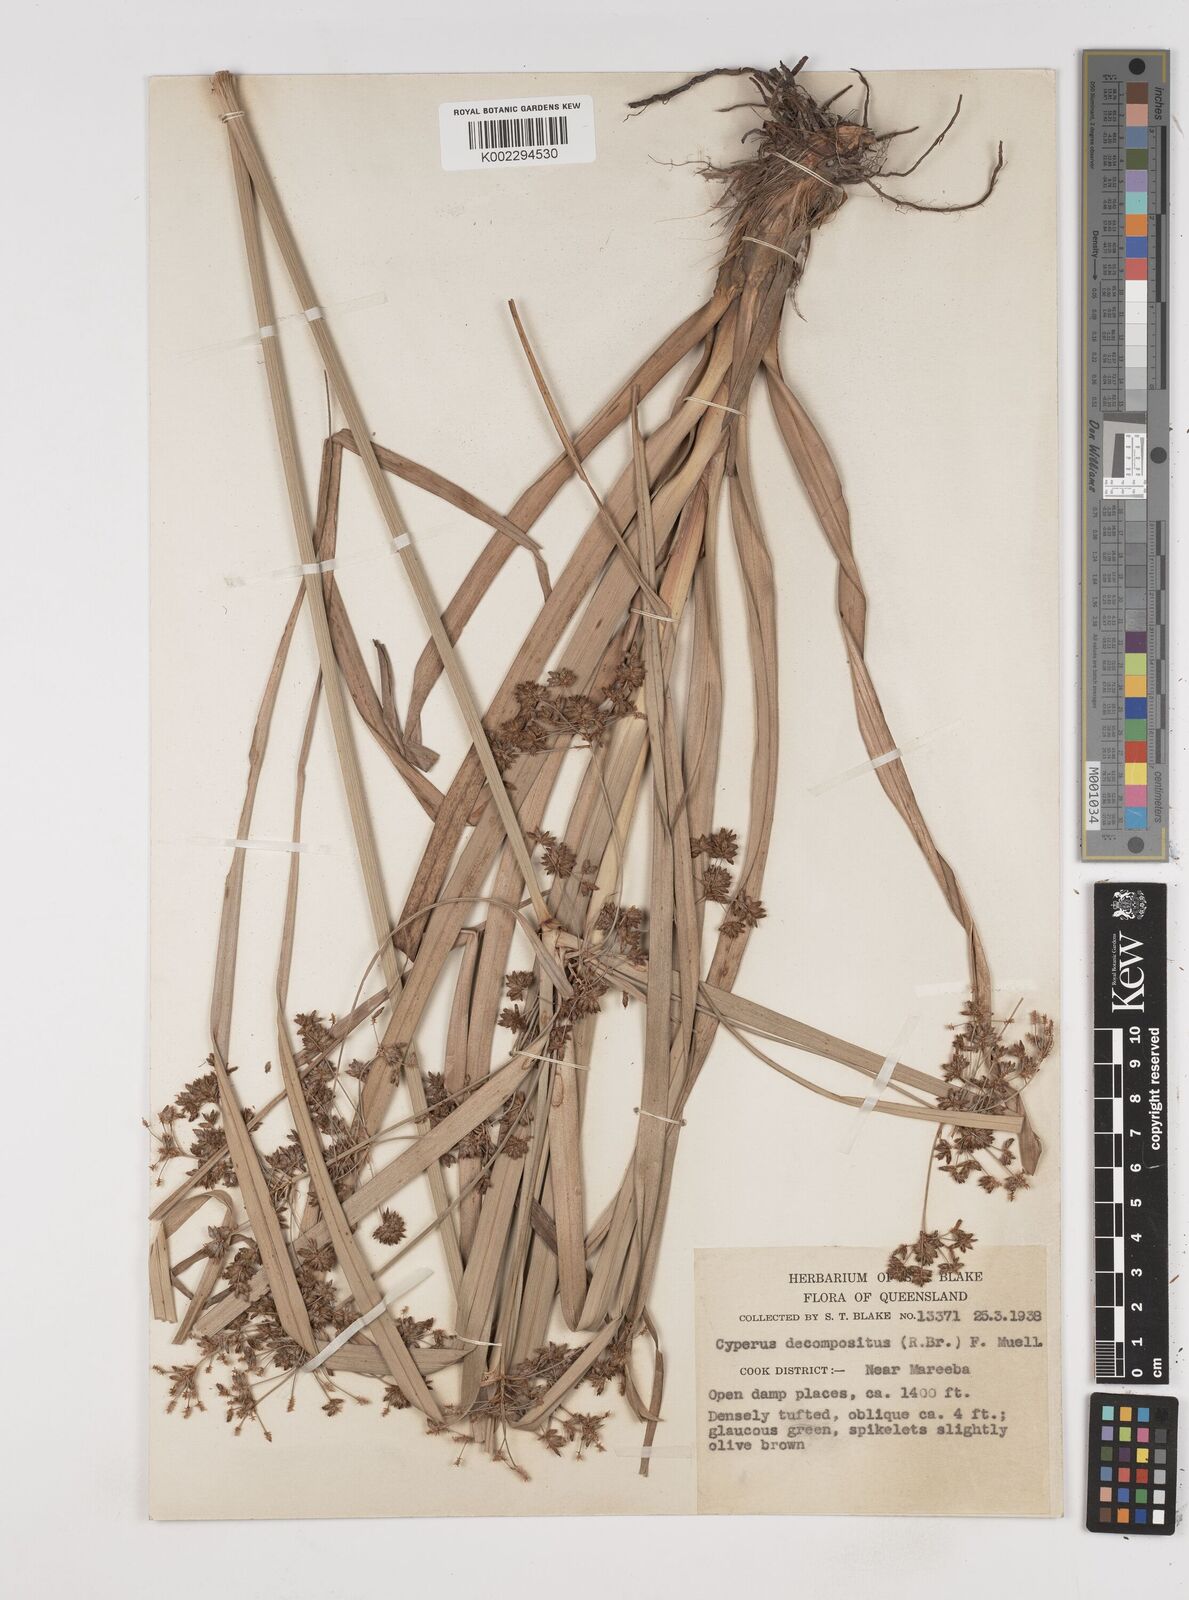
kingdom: Plantae
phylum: Tracheophyta
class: Liliopsida
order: Poales
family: Cyperaceae
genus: Cyperus
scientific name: Cyperus decompositus
